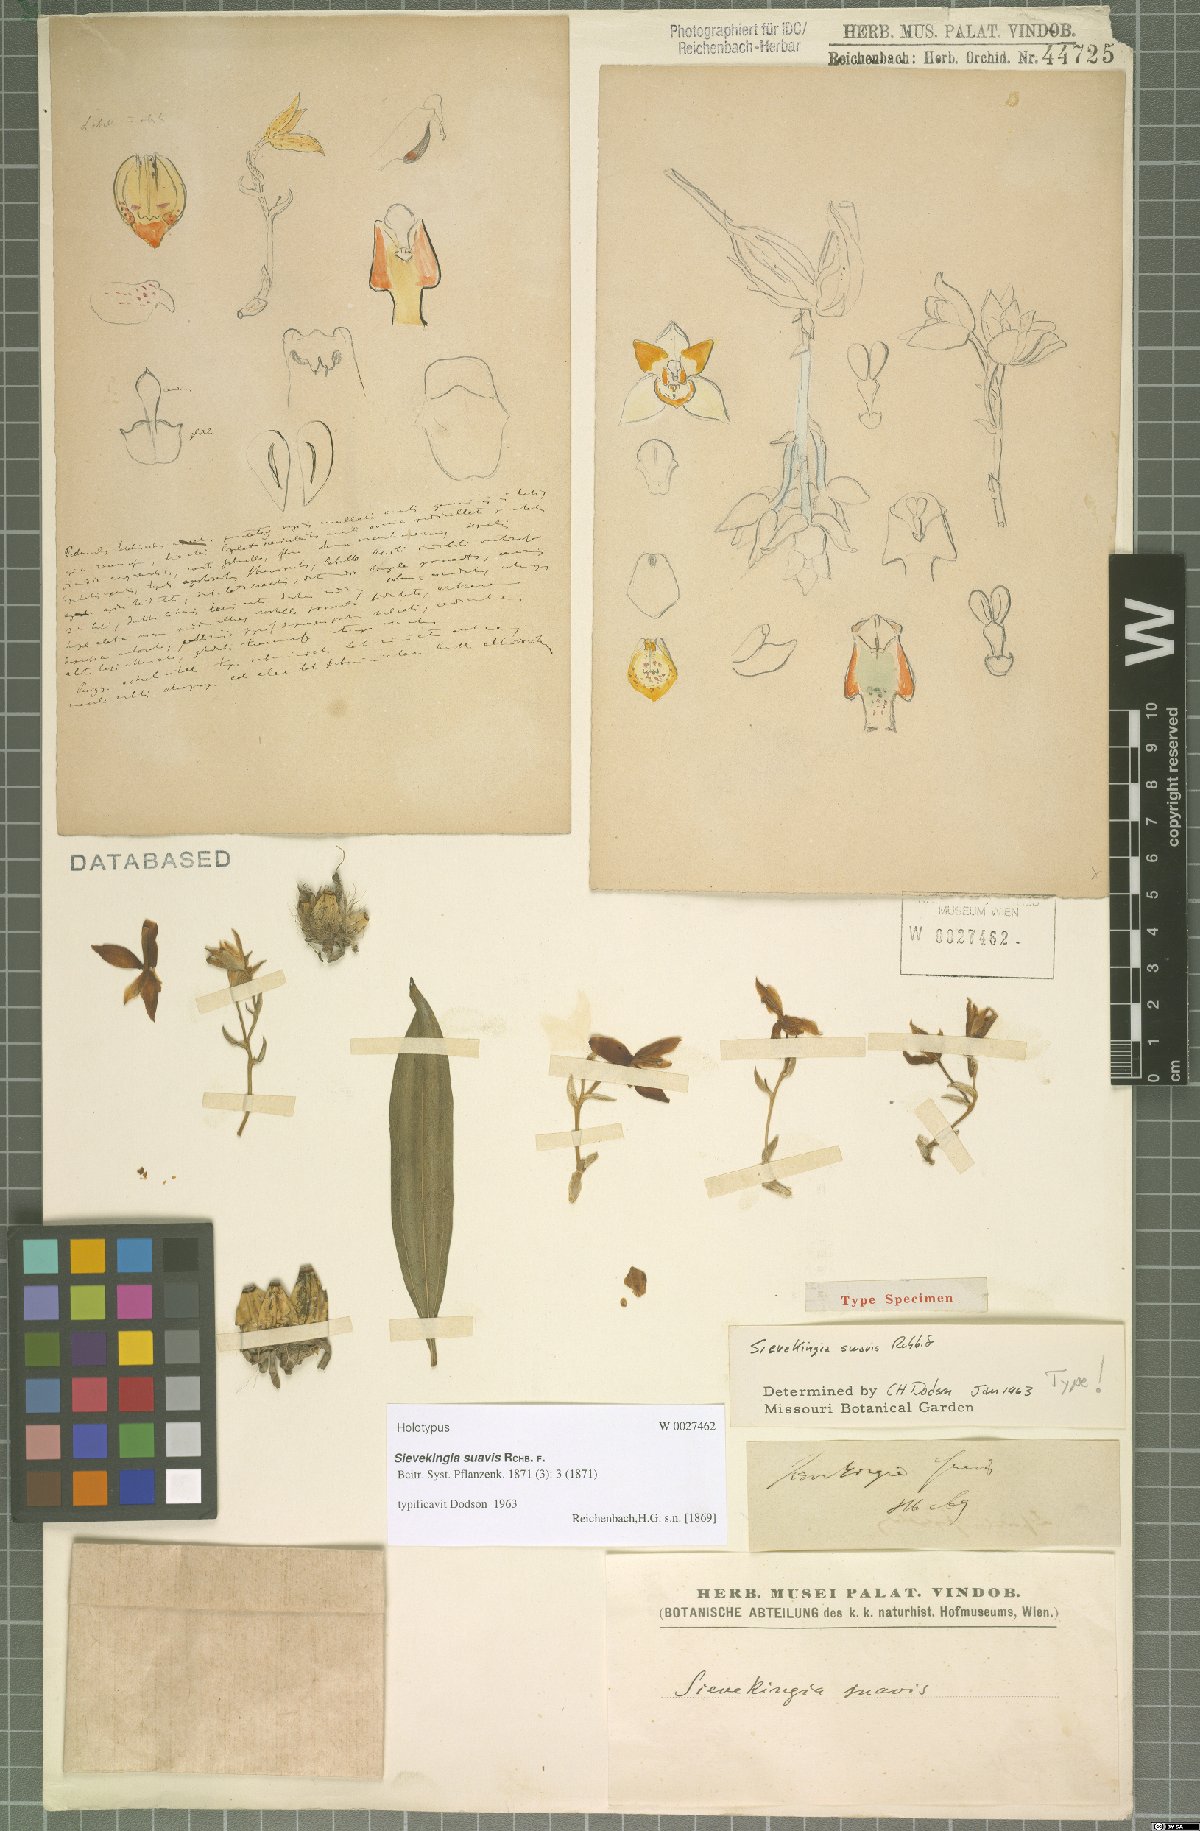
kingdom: Plantae
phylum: Tracheophyta
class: Liliopsida
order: Asparagales
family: Orchidaceae
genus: Sievekingia
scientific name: Sievekingia suavis
